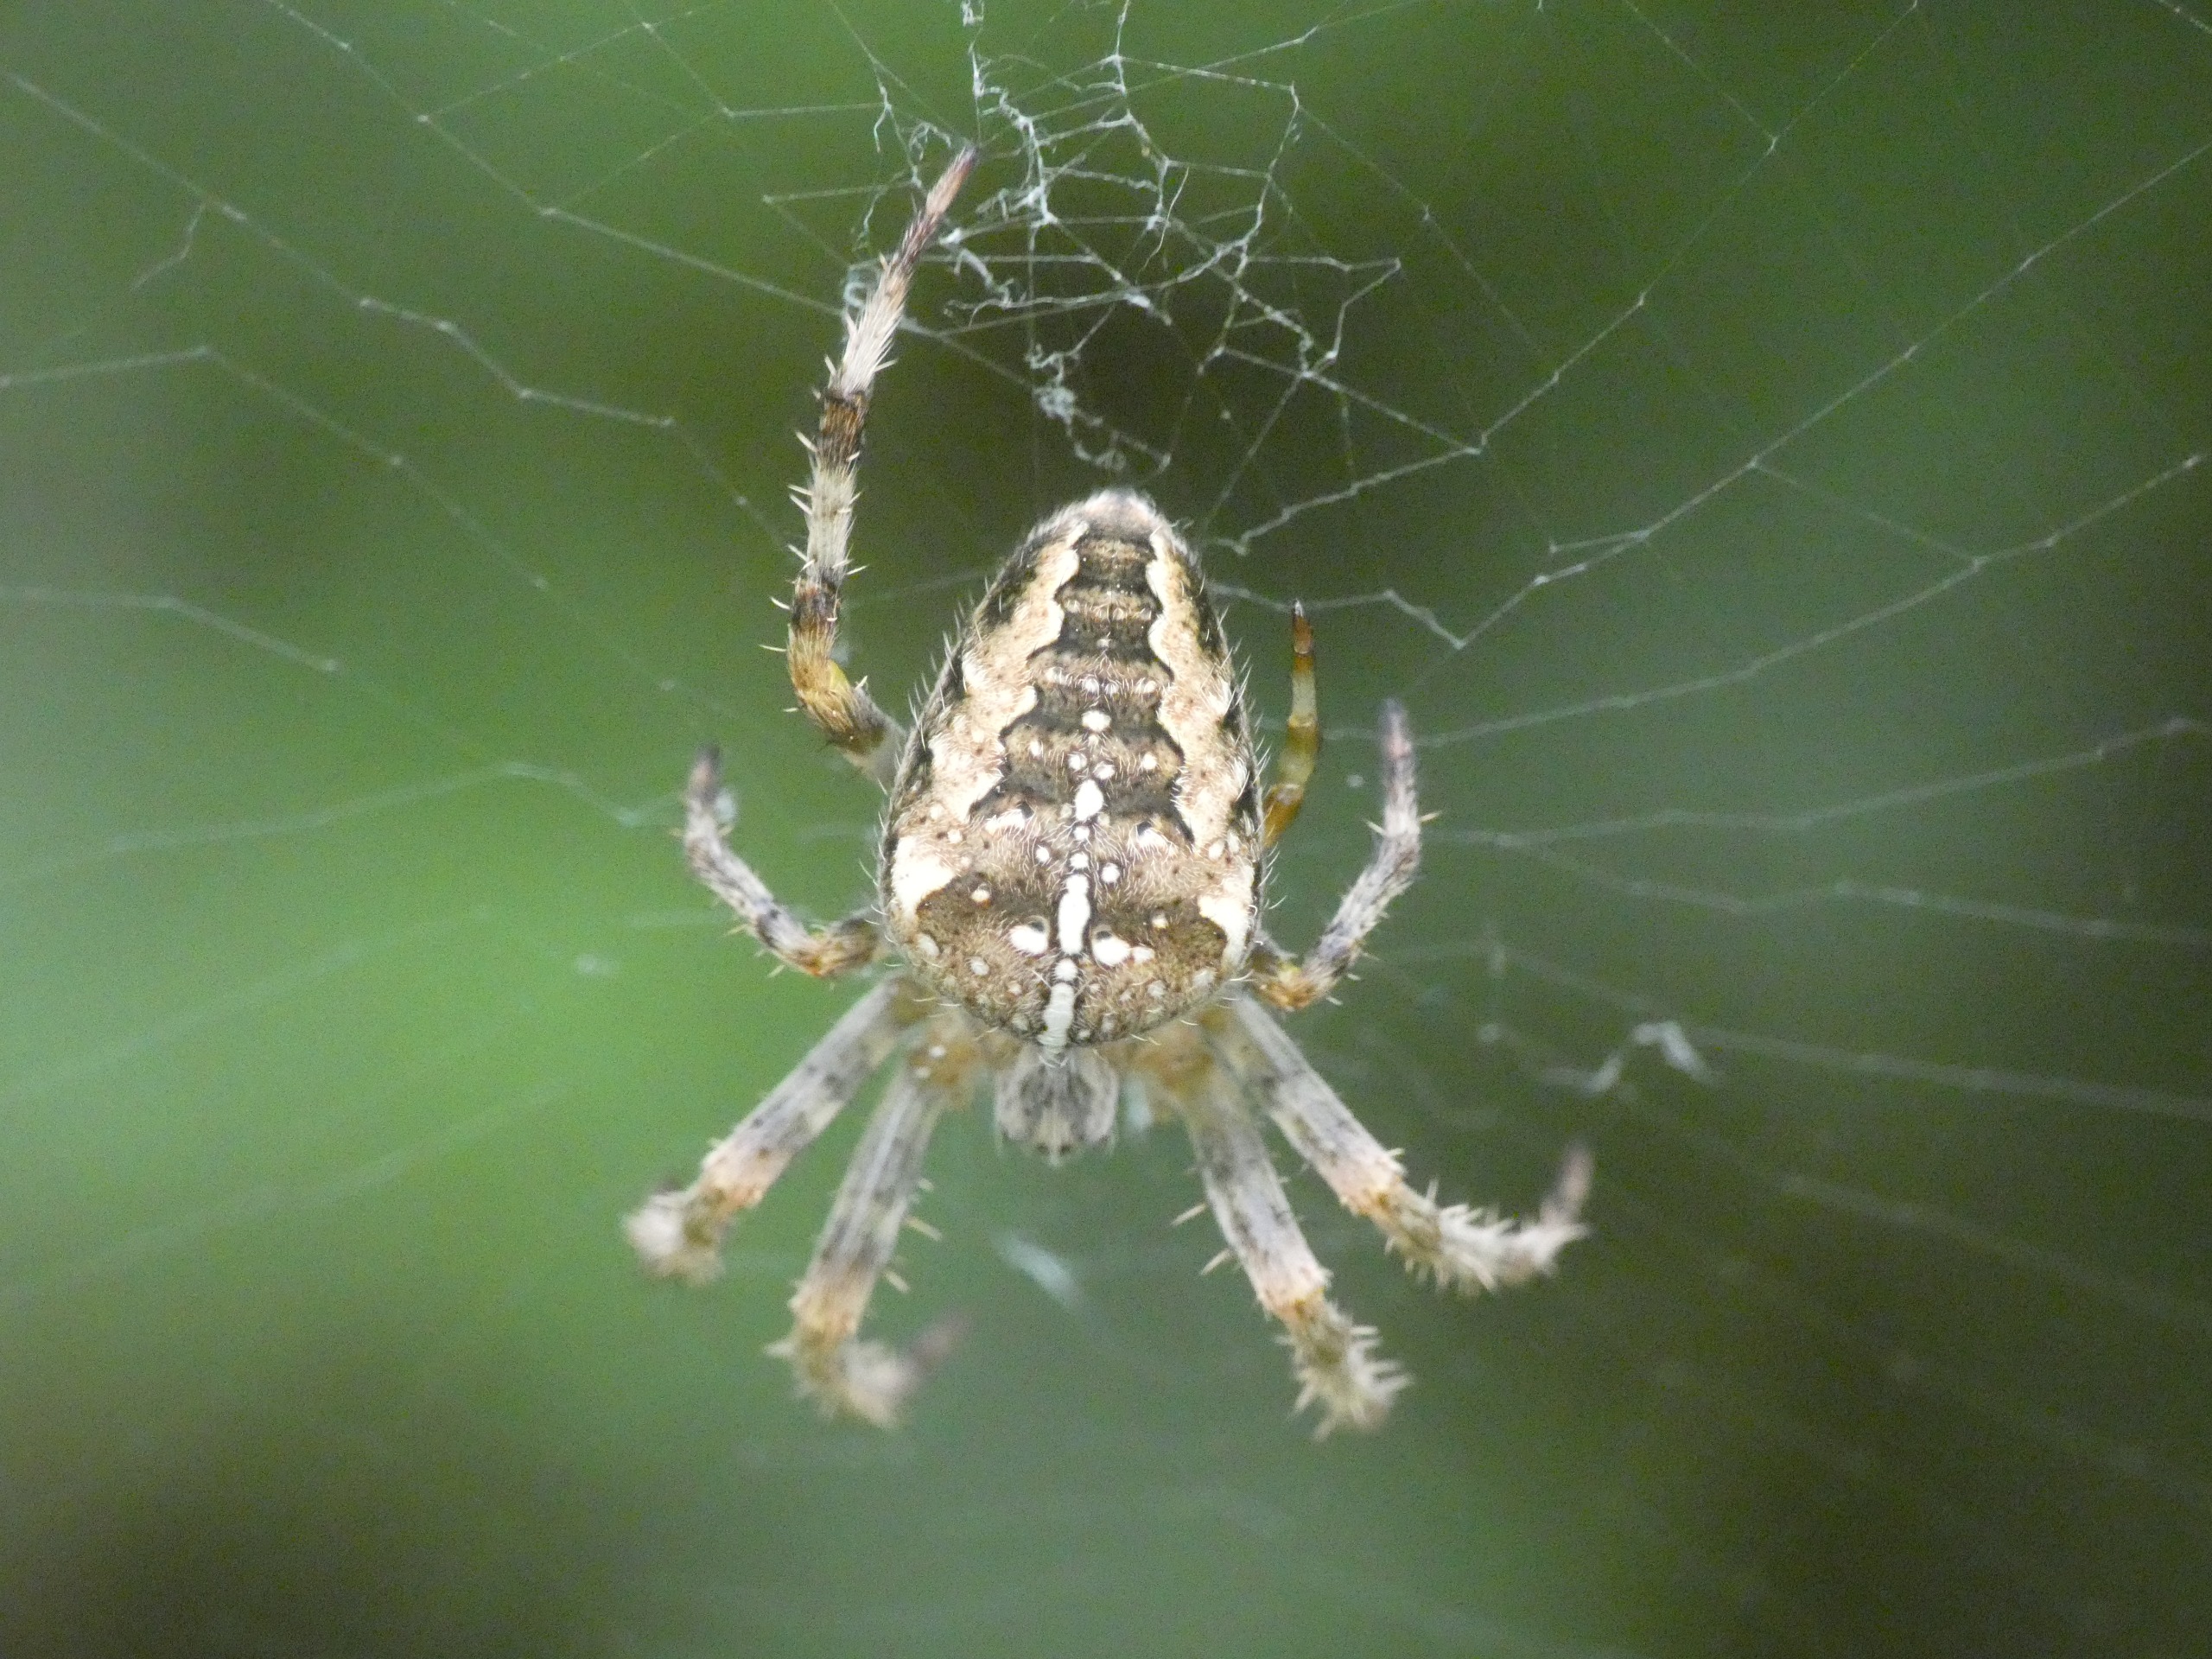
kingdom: Animalia
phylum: Arthropoda
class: Arachnida
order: Araneae
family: Araneidae
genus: Araneus
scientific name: Araneus diadematus
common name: Korsedderkop
